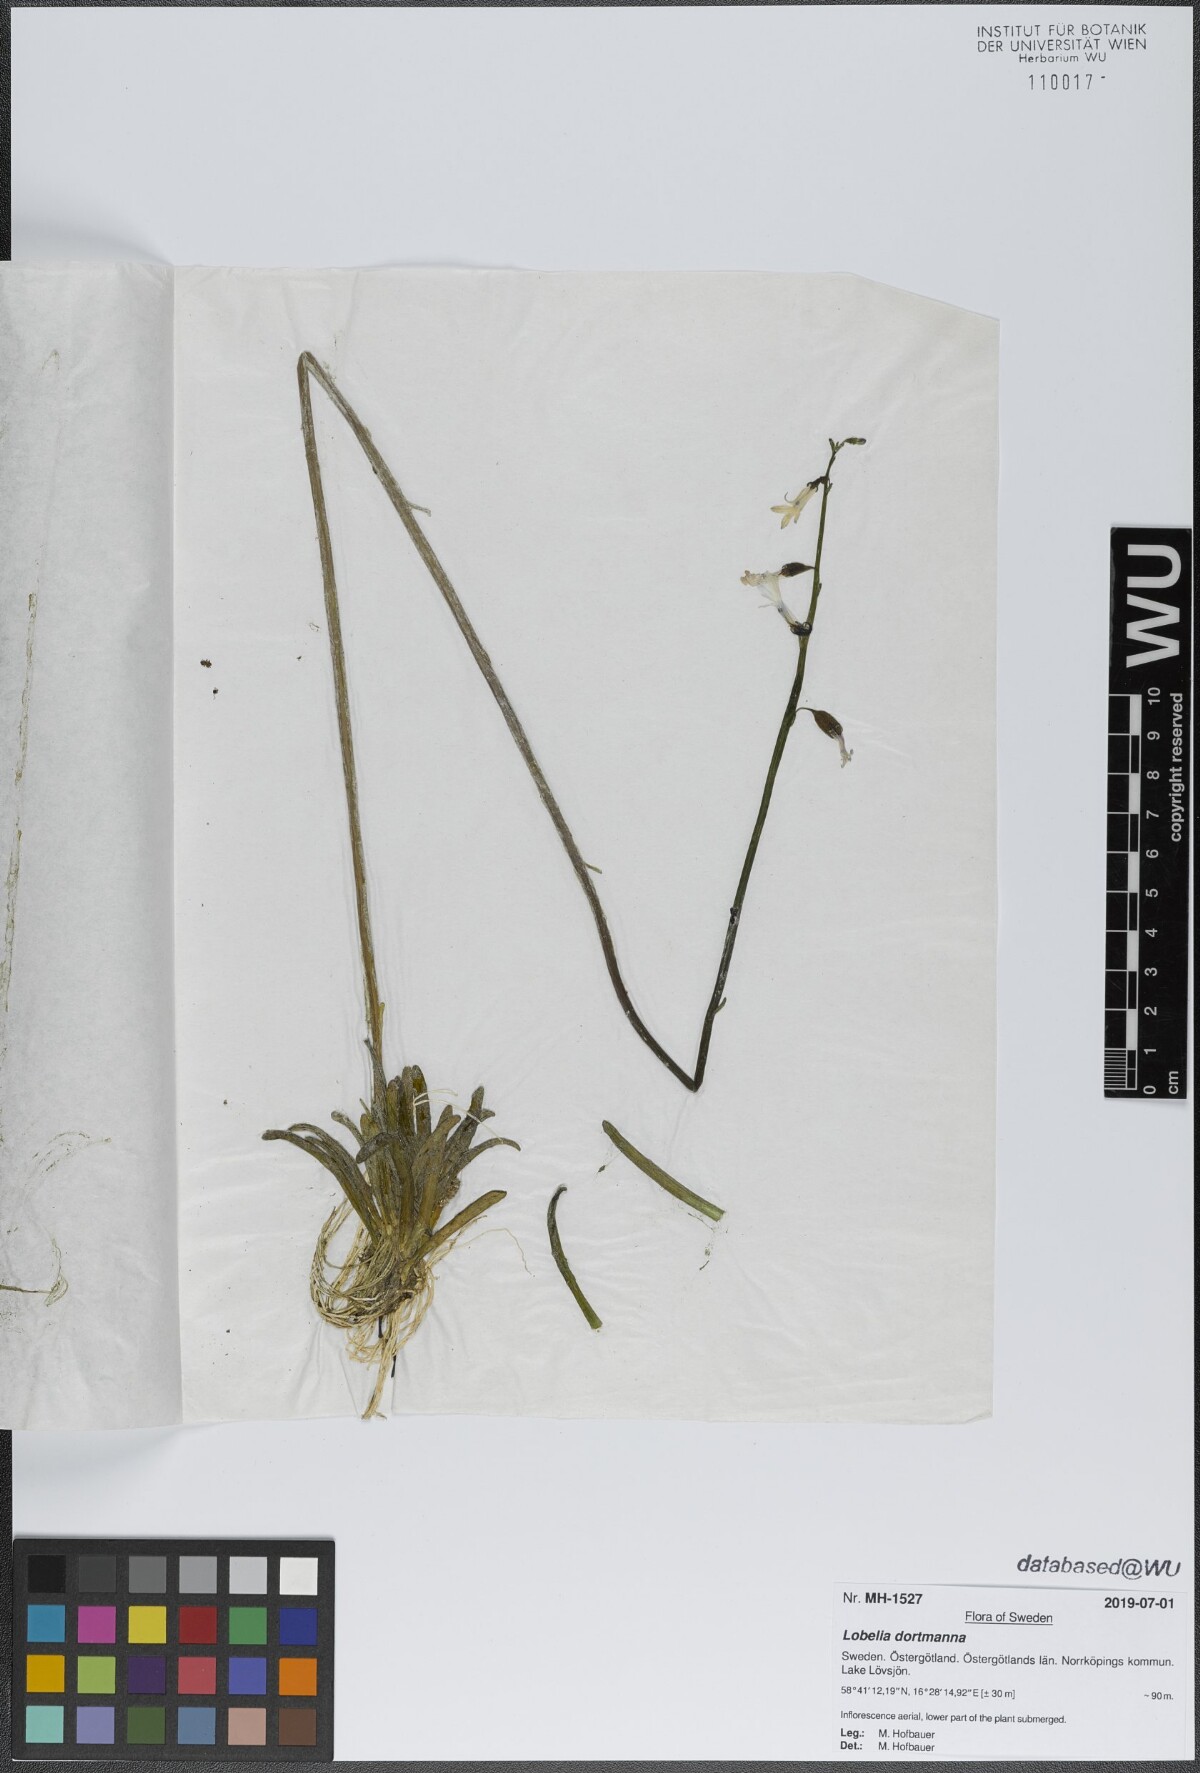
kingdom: Plantae
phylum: Tracheophyta
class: Magnoliopsida
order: Asterales
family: Campanulaceae
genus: Lobelia
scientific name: Lobelia dortmanna
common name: Water lobelia
